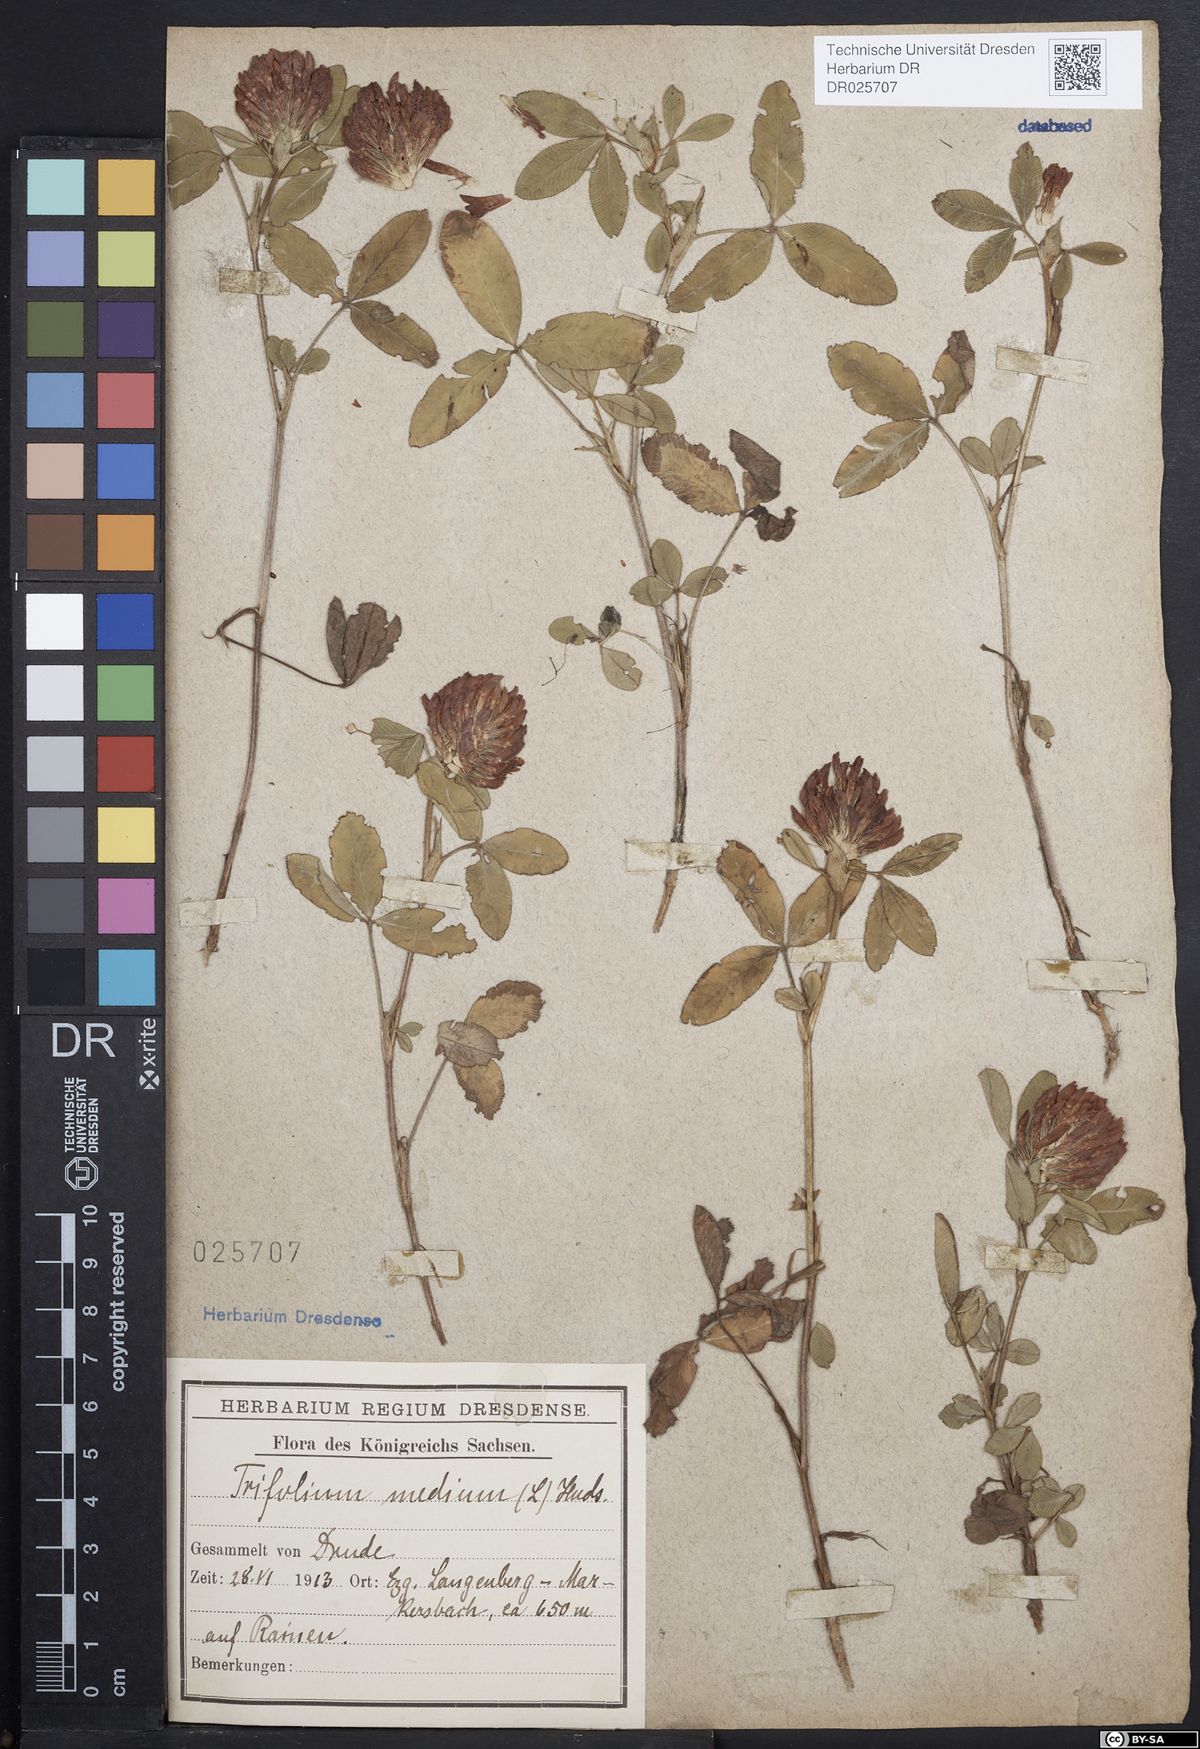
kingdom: Plantae
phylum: Tracheophyta
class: Magnoliopsida
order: Fabales
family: Fabaceae
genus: Trifolium
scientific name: Trifolium medium
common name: Zigzag clover
